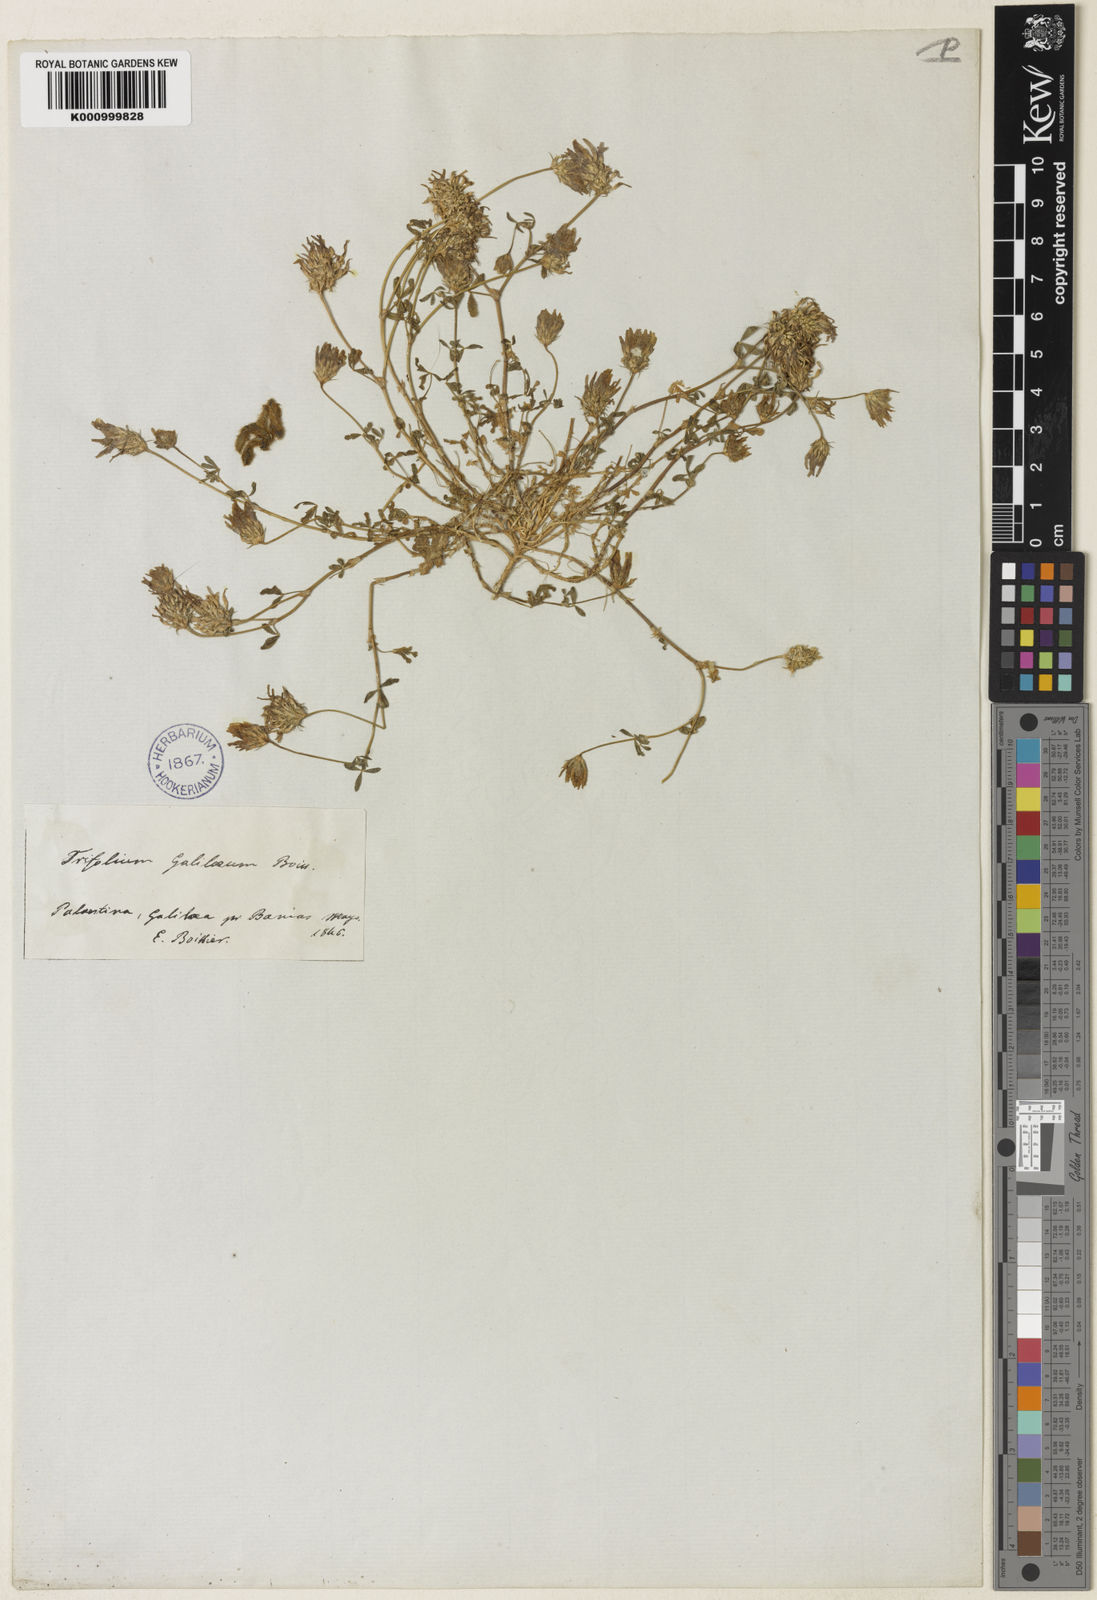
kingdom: Plantae
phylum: Tracheophyta
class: Magnoliopsida
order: Fabales
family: Fabaceae
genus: Trifolium
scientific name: Trifolium glanduliferum
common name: Glandular clover
